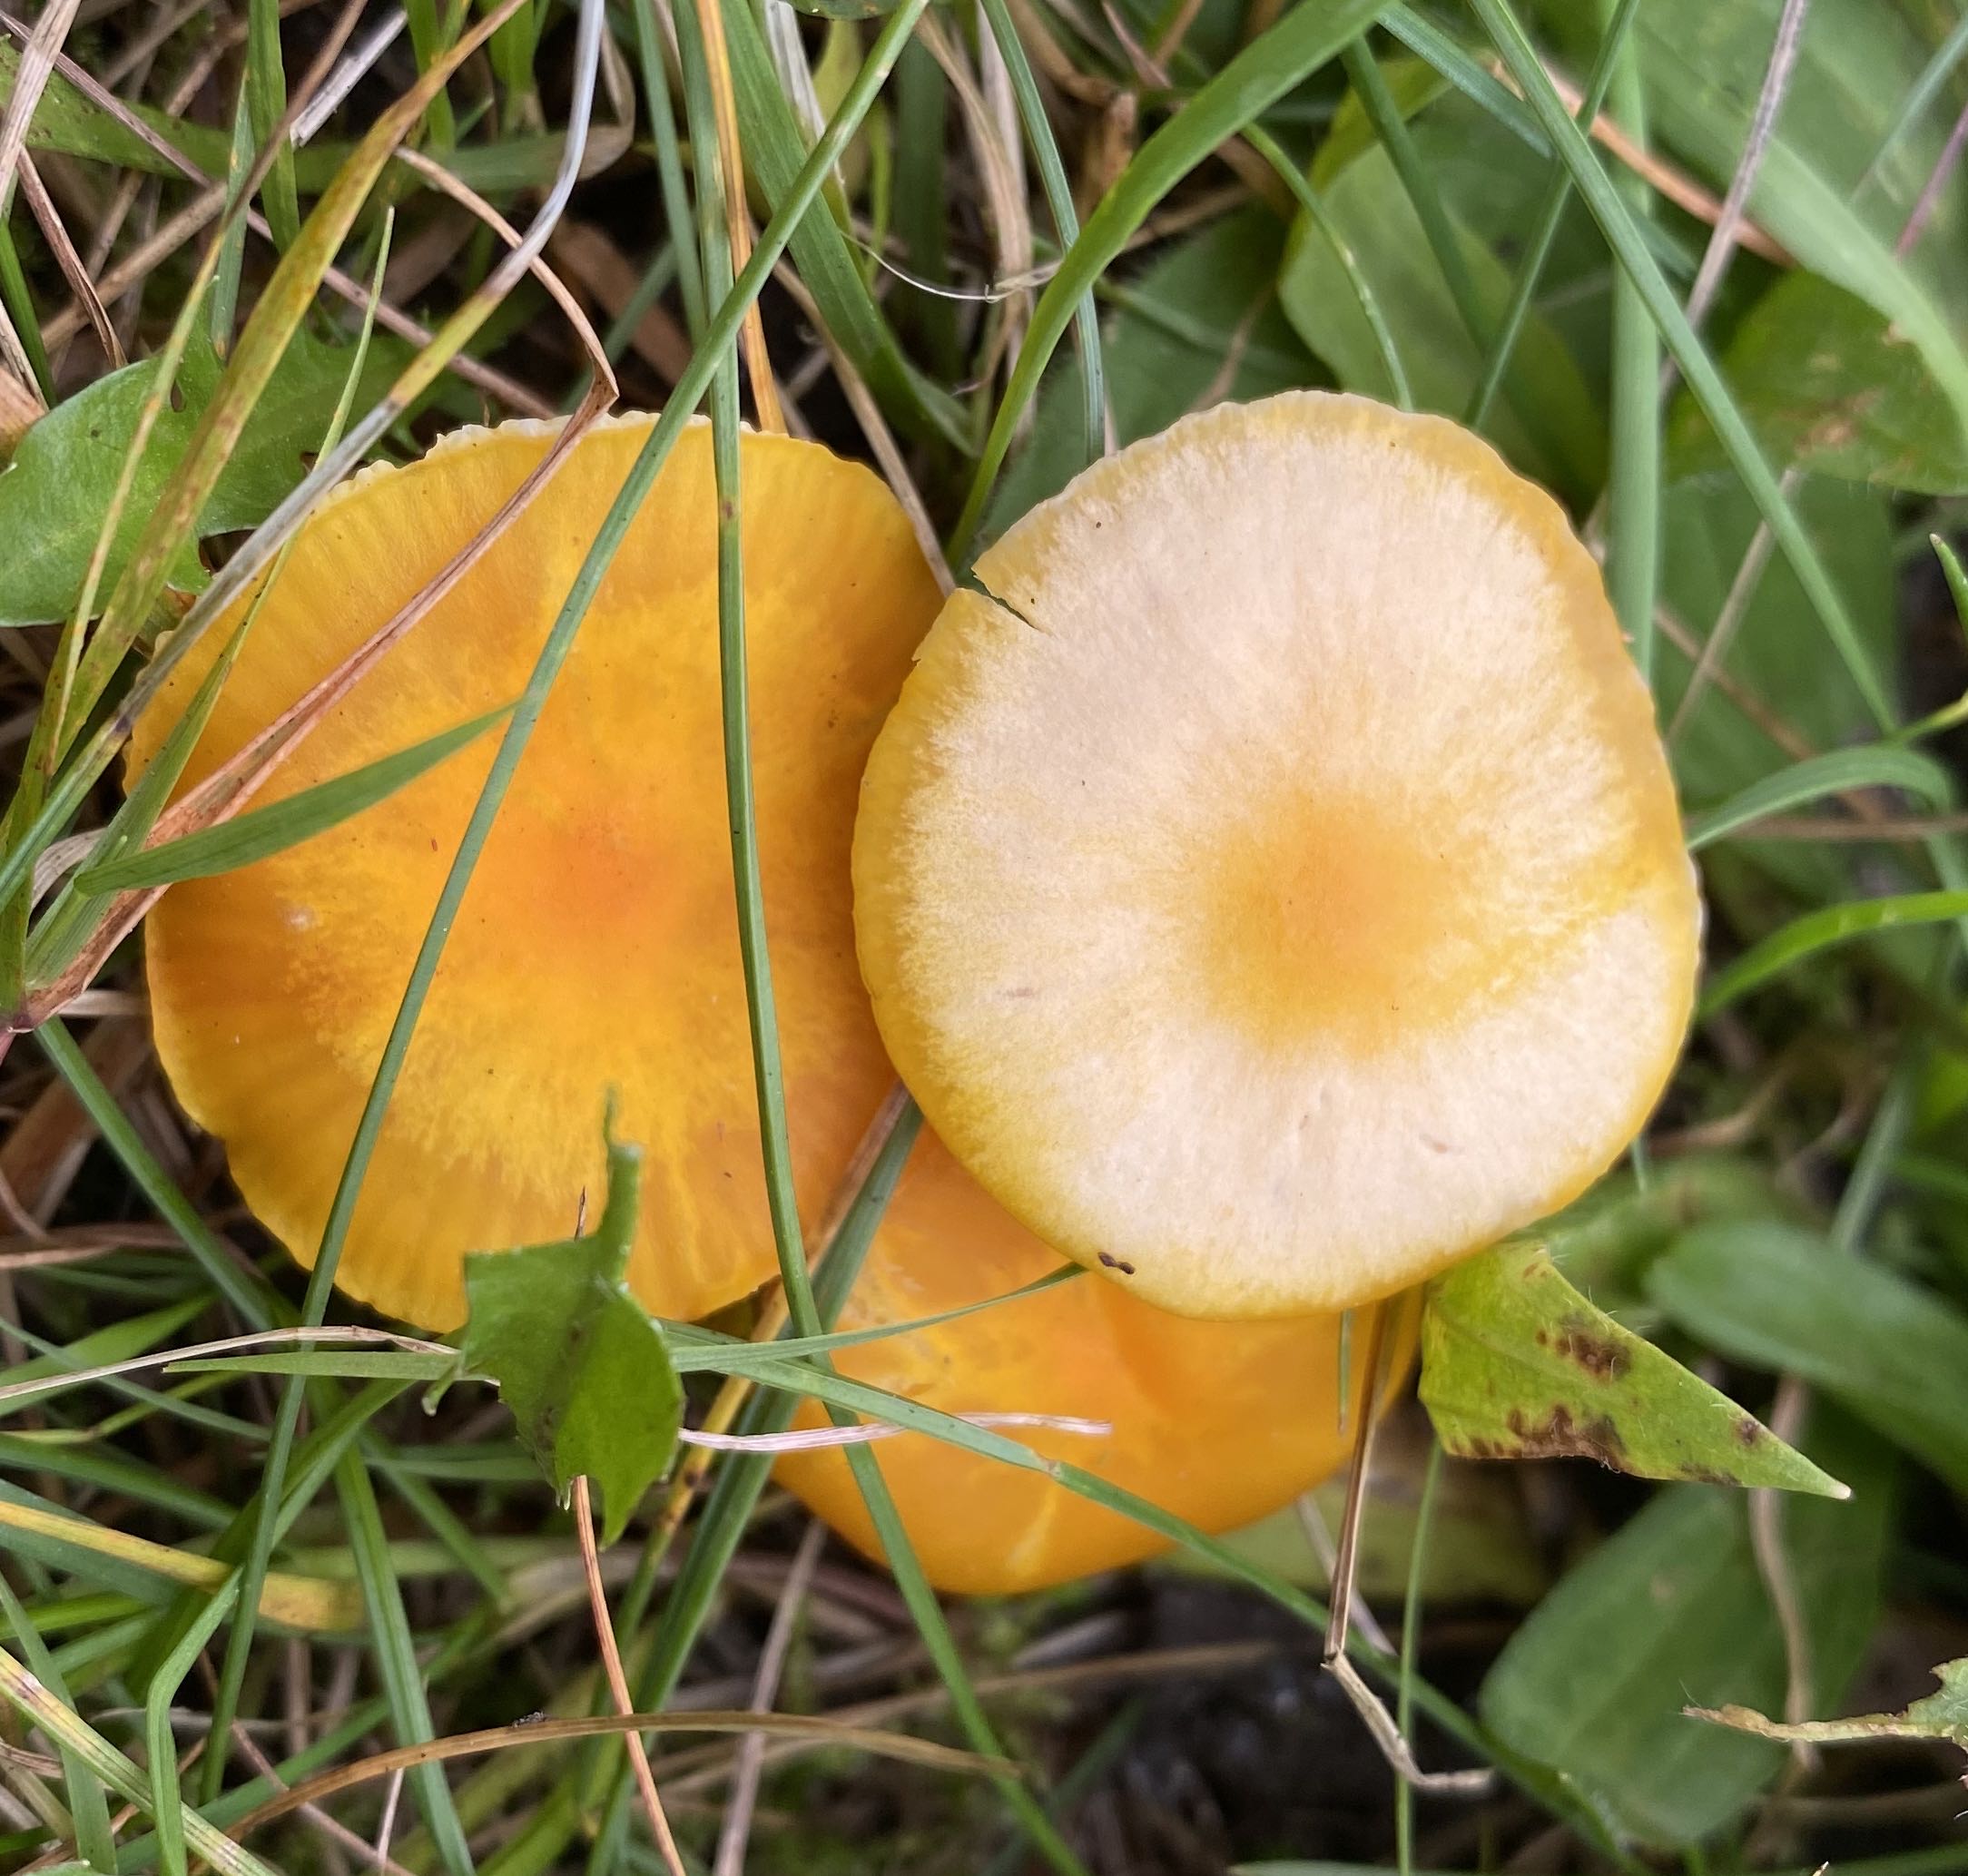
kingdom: Fungi
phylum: Basidiomycota
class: Agaricomycetes
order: Agaricales
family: Hygrophoraceae
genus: Hygrocybe
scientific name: Hygrocybe ceracea
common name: voksgul vokshat
